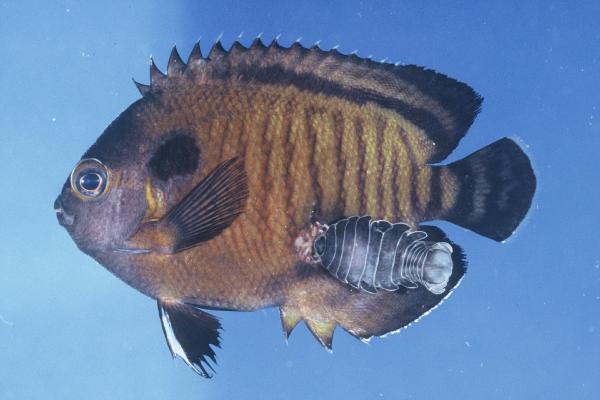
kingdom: Animalia
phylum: Chordata
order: Perciformes
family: Pomacanthidae
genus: Centropyge
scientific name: Centropyge multispinis
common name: Many-spined angelfish
